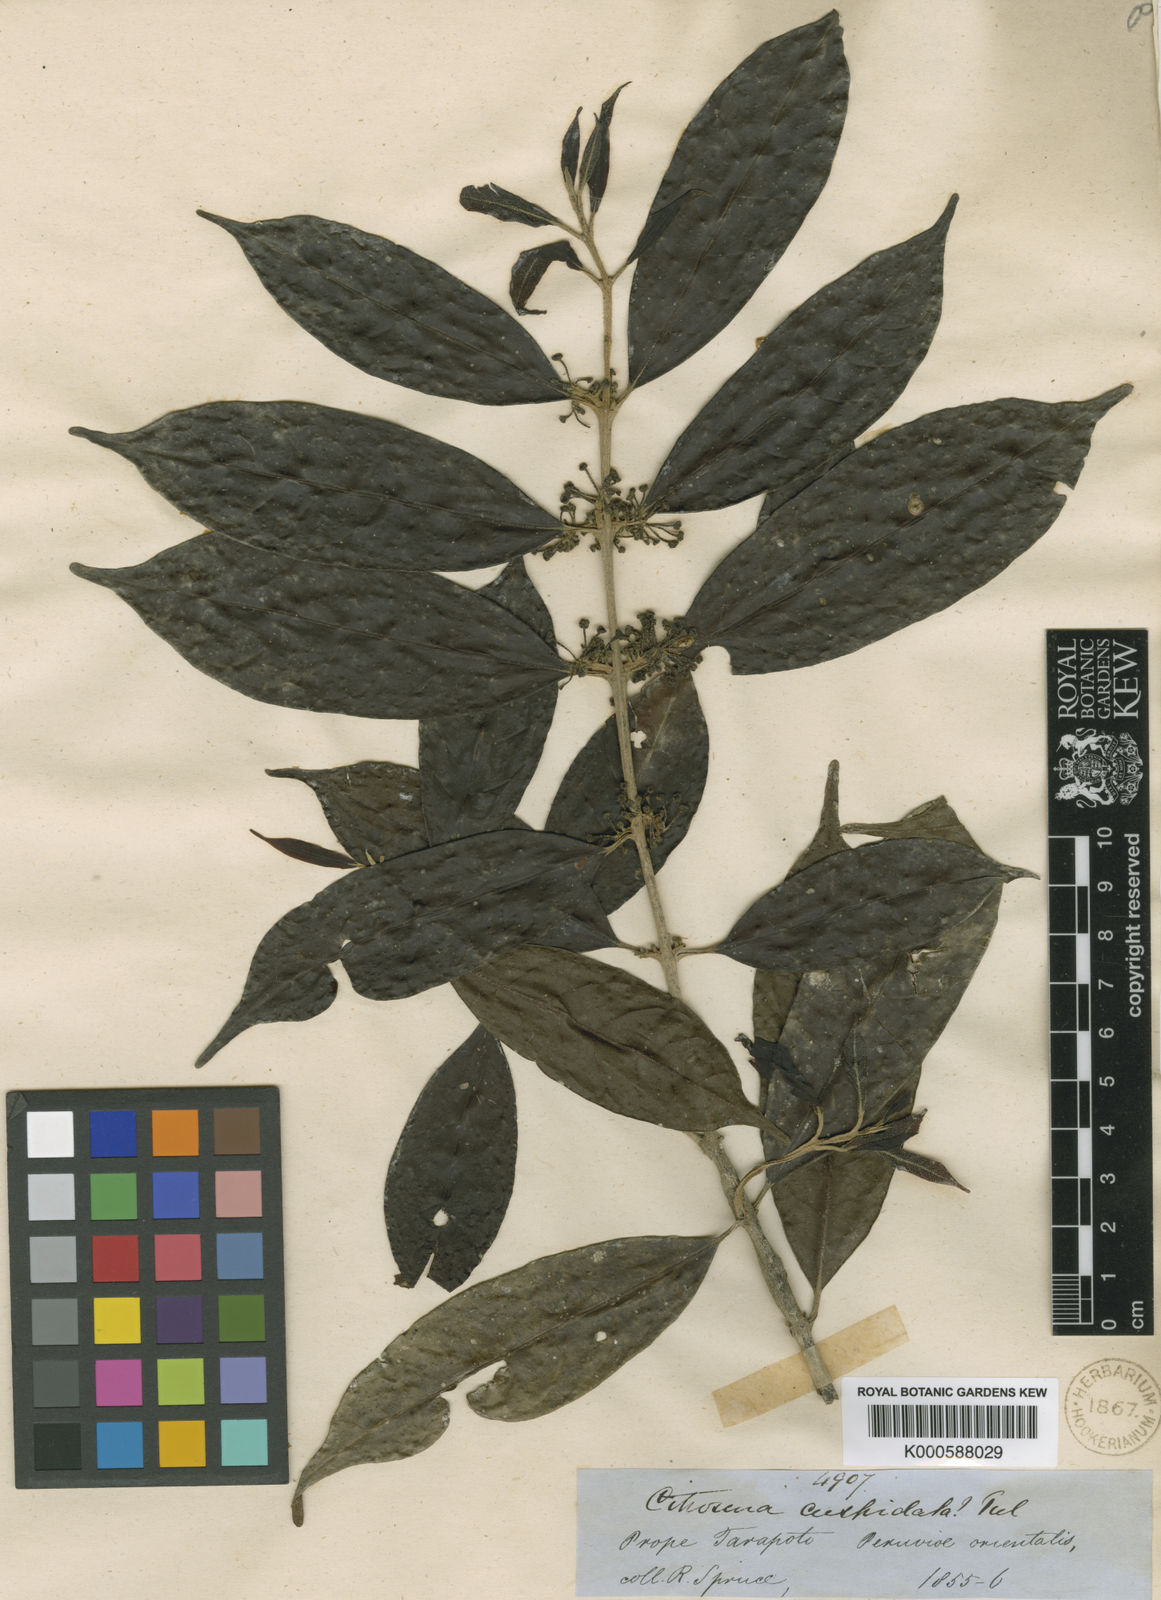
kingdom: Plantae
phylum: Tracheophyta
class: Magnoliopsida
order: Laurales
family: Siparunaceae
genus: Siparuna
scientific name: Siparuna cuspidata
